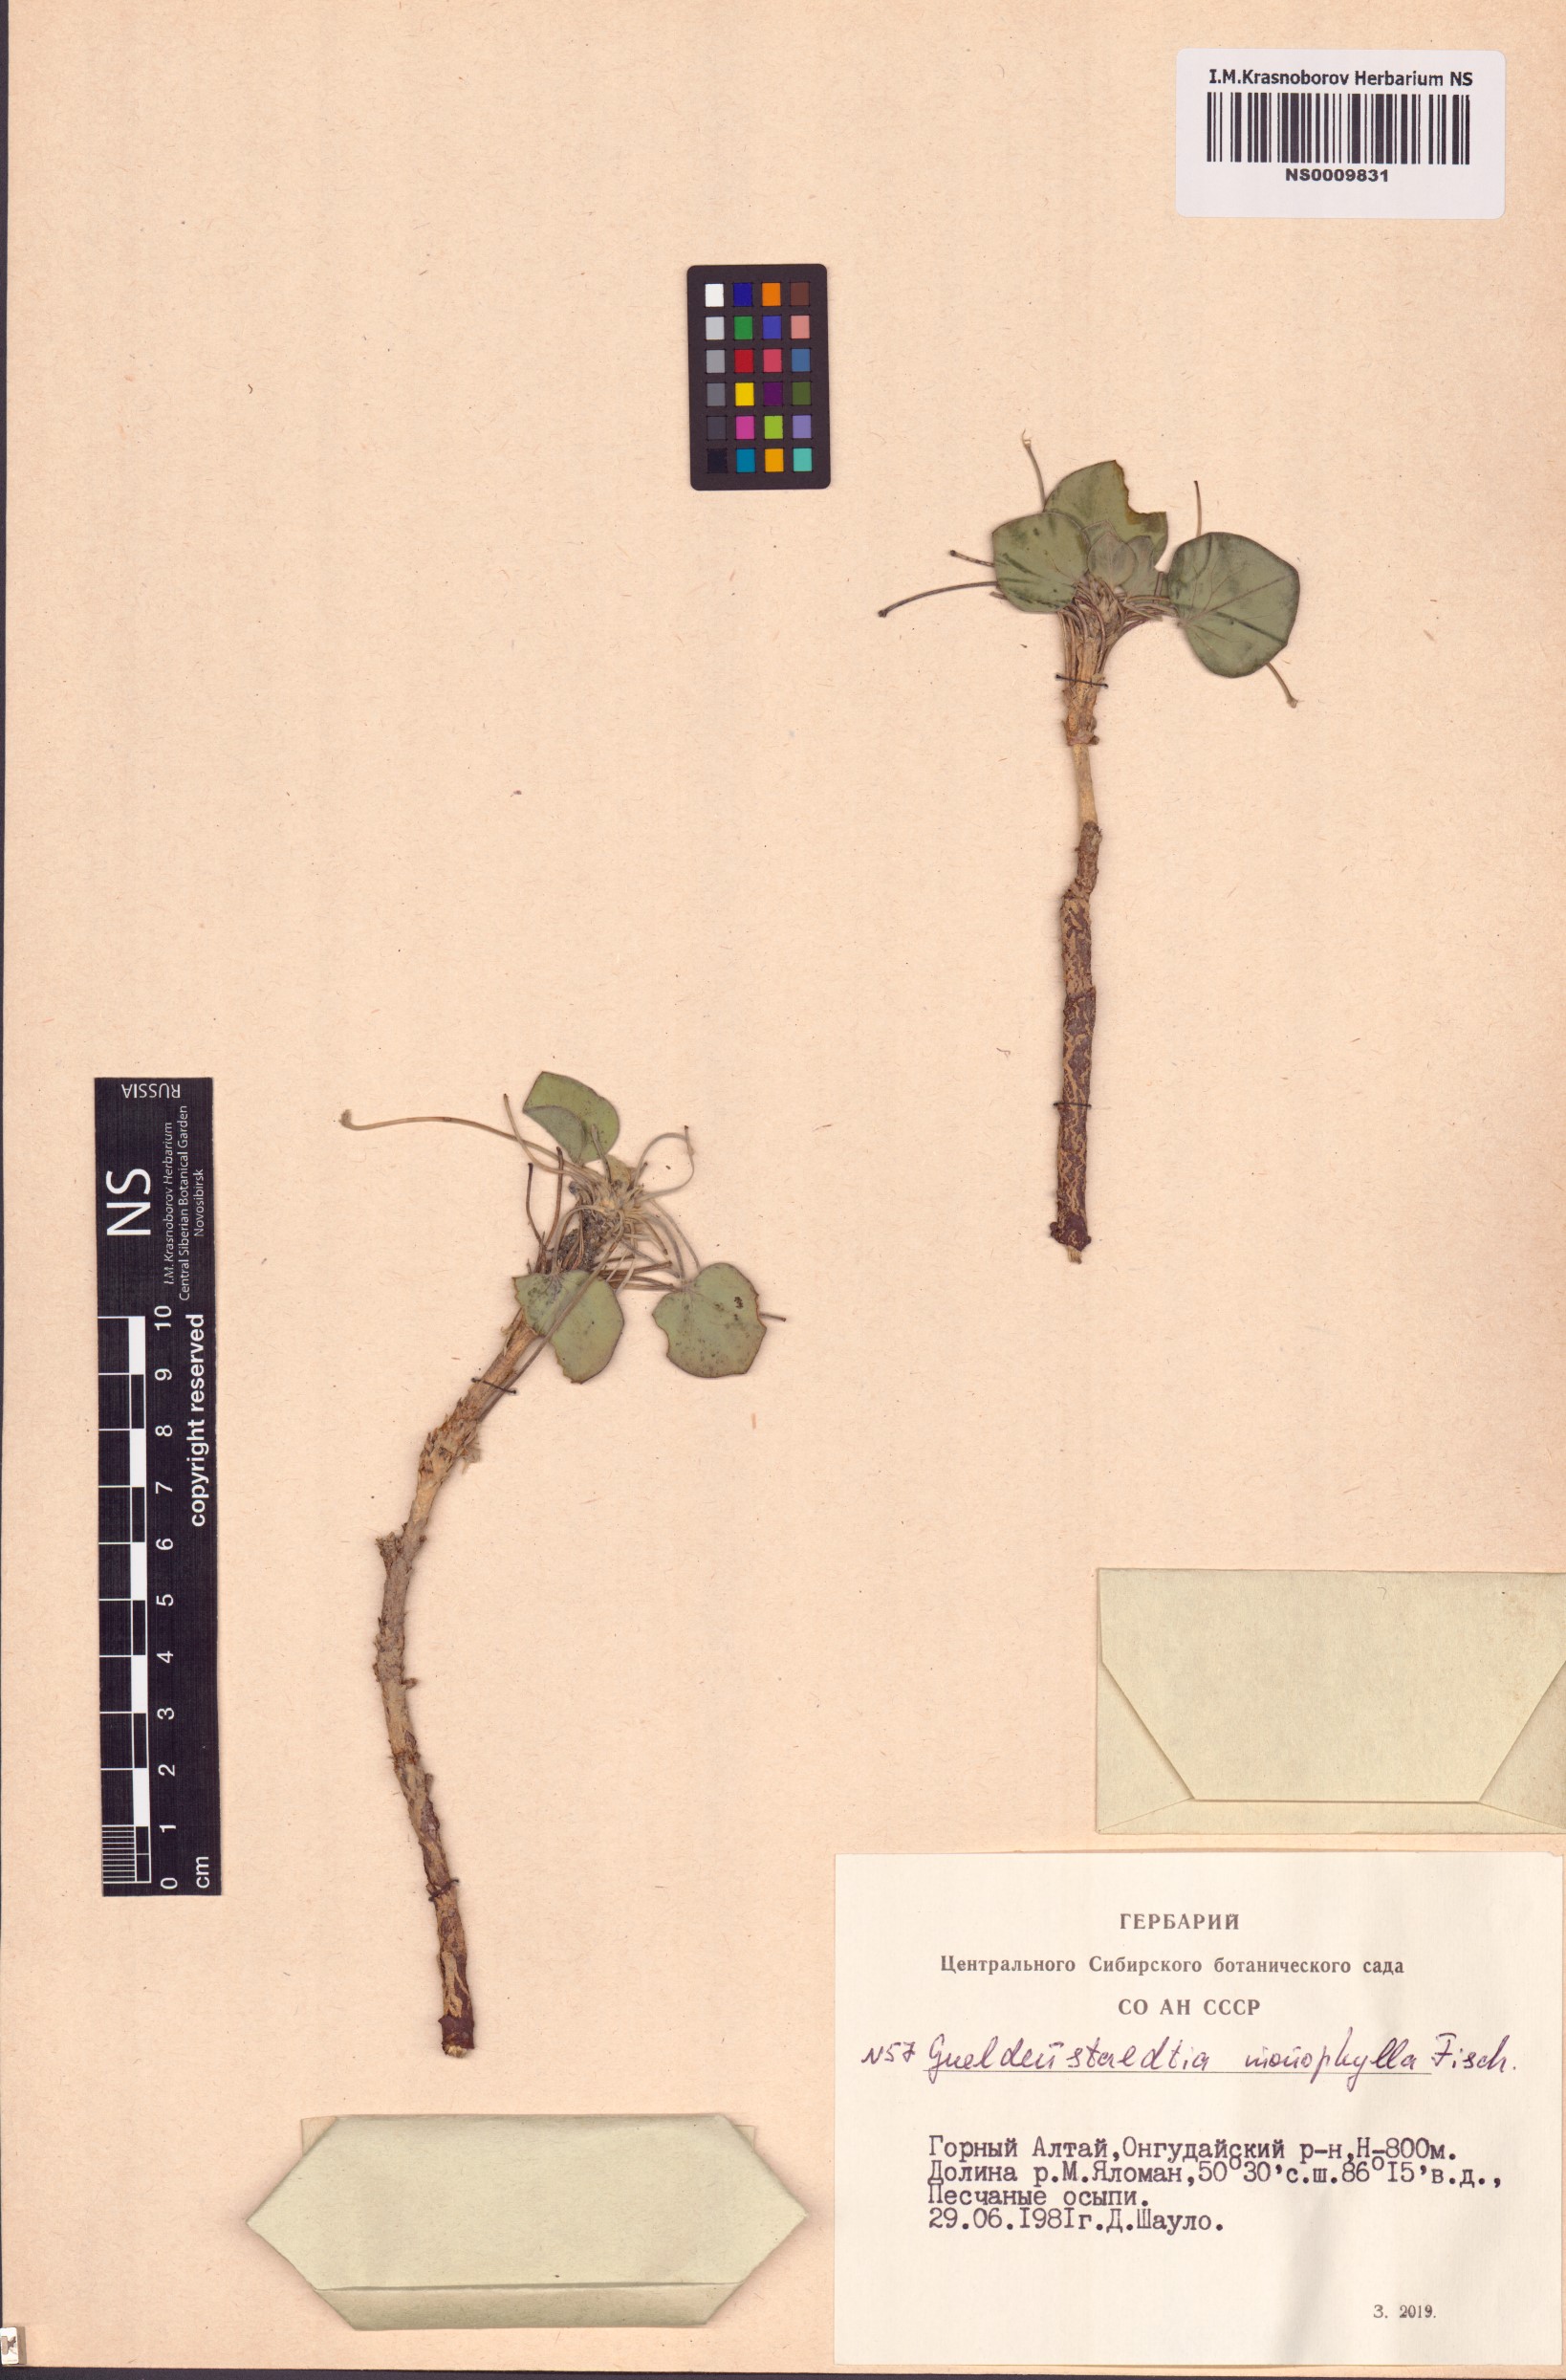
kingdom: Plantae
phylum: Tracheophyta
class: Magnoliopsida
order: Fabales
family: Fabaceae
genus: Gueldenstaedtia
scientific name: Gueldenstaedtia monophylla
